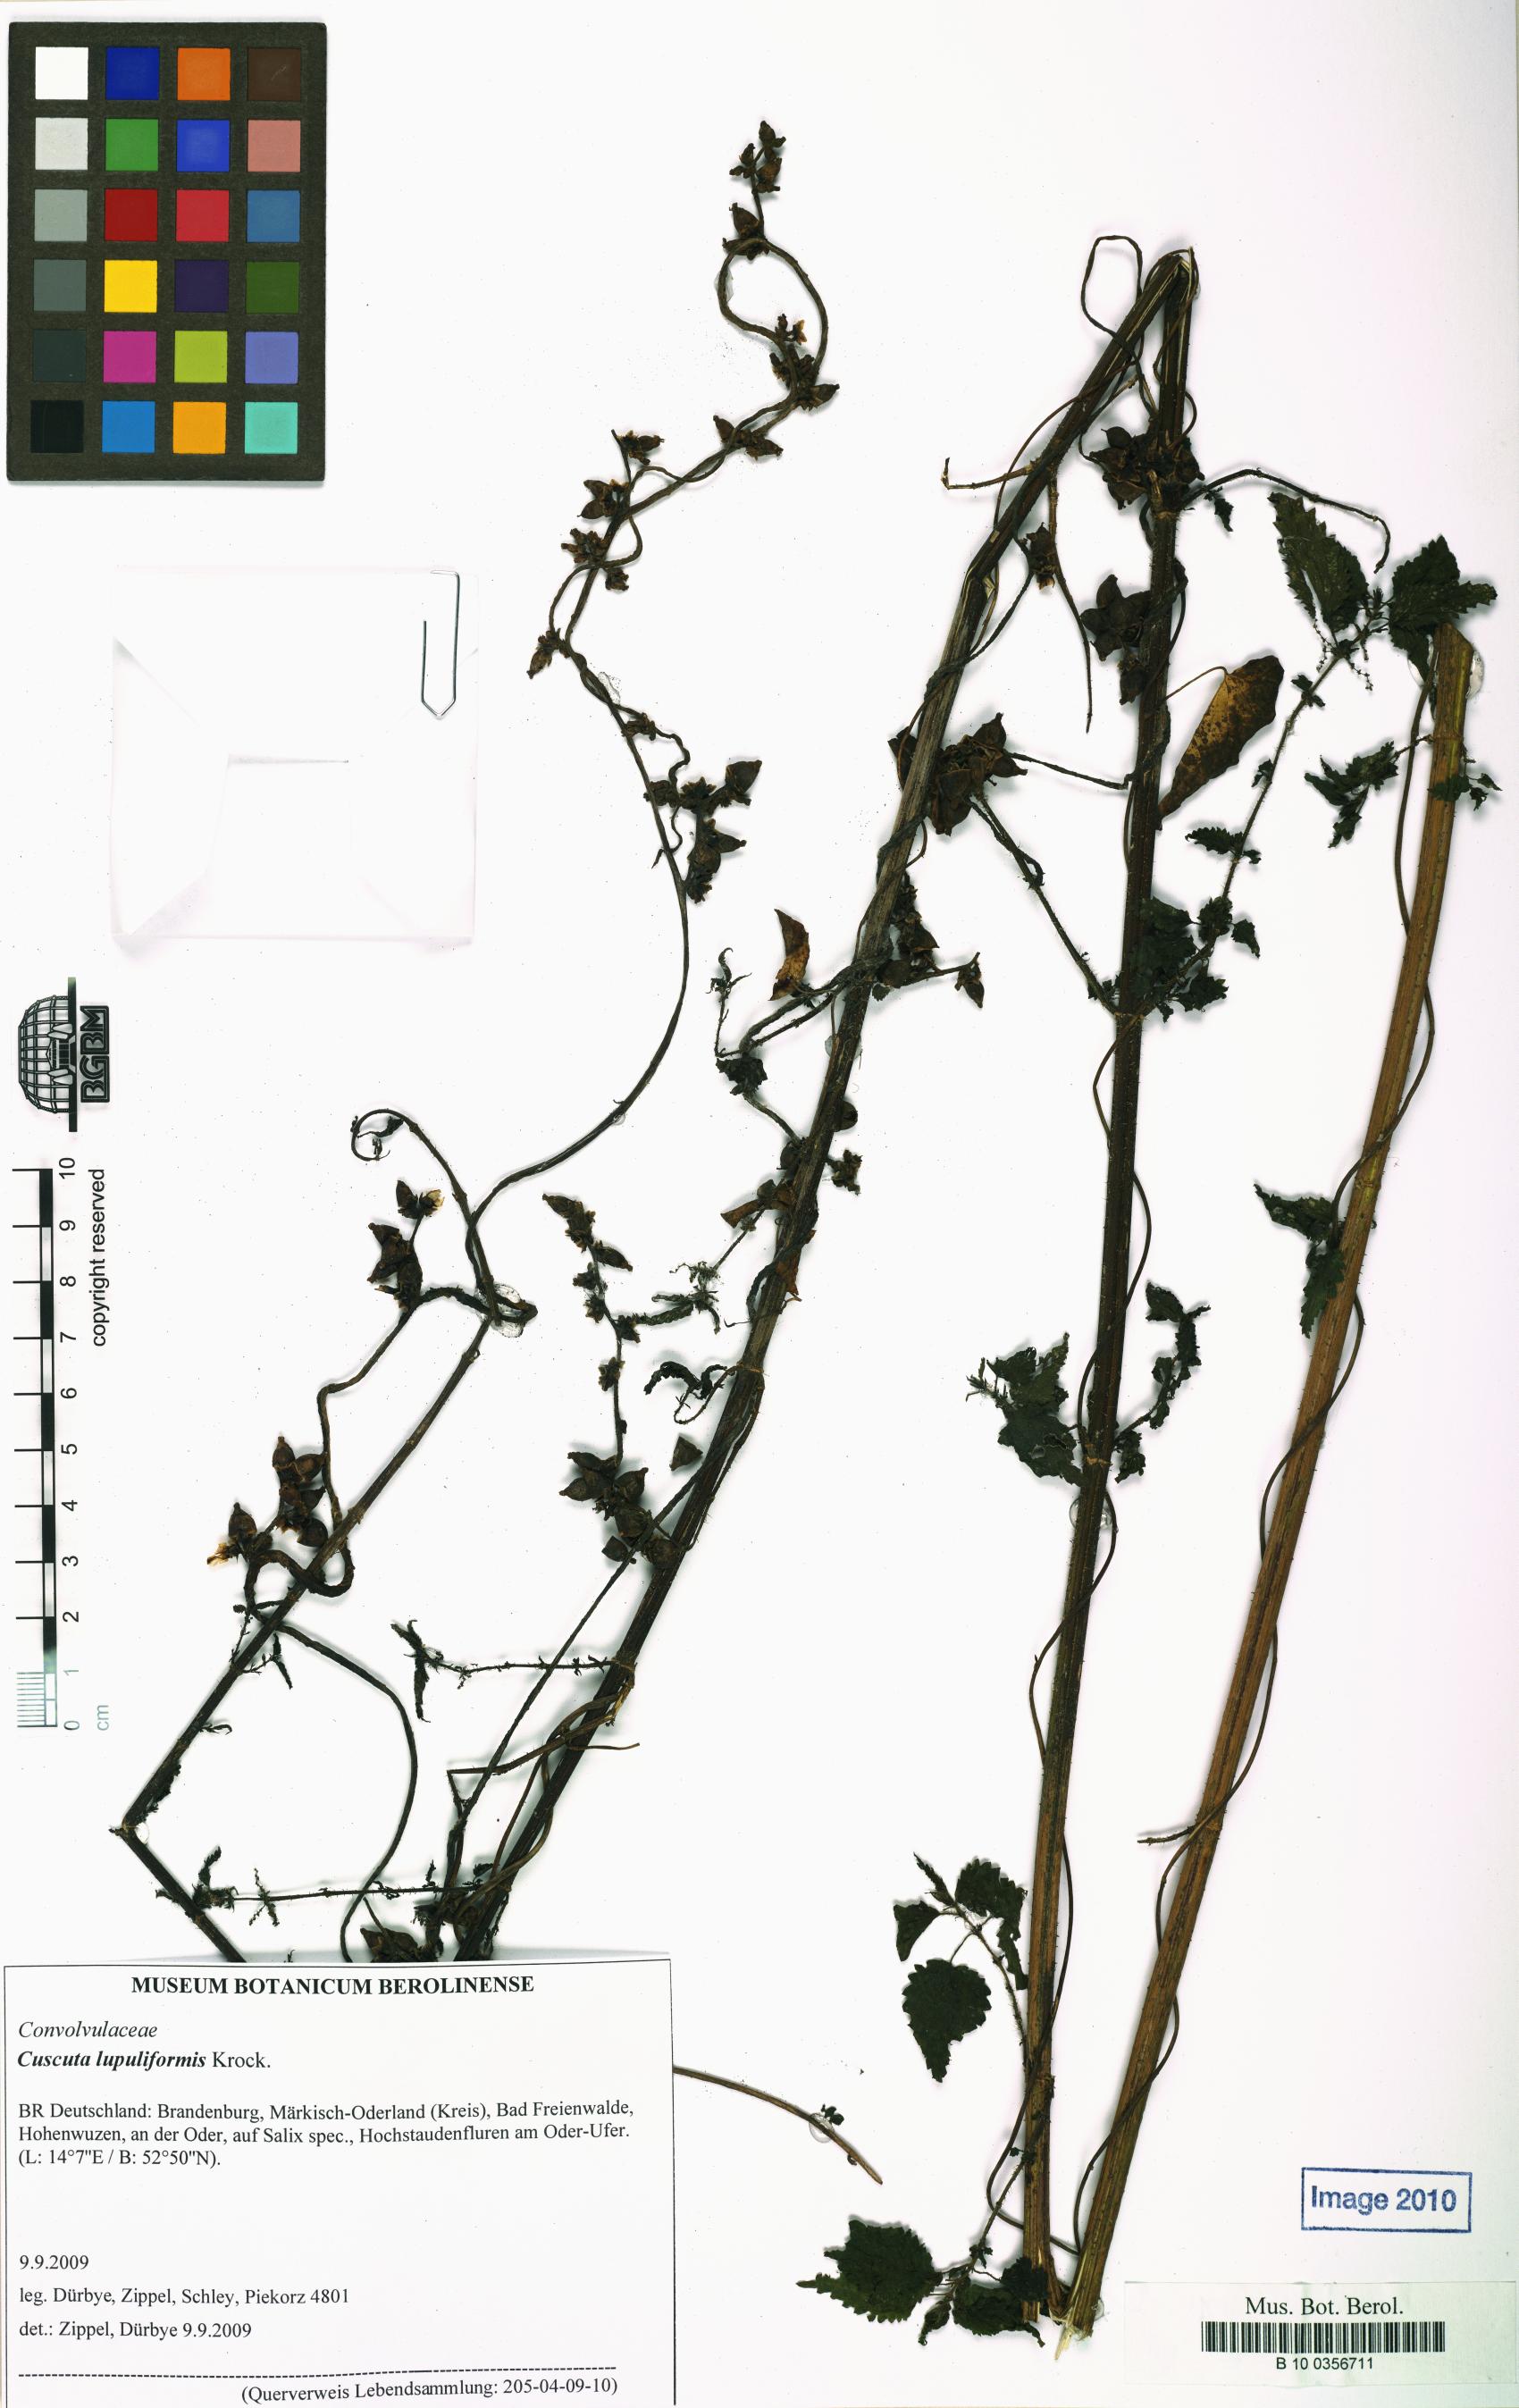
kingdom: Plantae
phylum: Tracheophyta
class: Magnoliopsida
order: Solanales
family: Convolvulaceae
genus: Cuscuta
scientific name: Cuscuta lupuliformis
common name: Hop dodder
